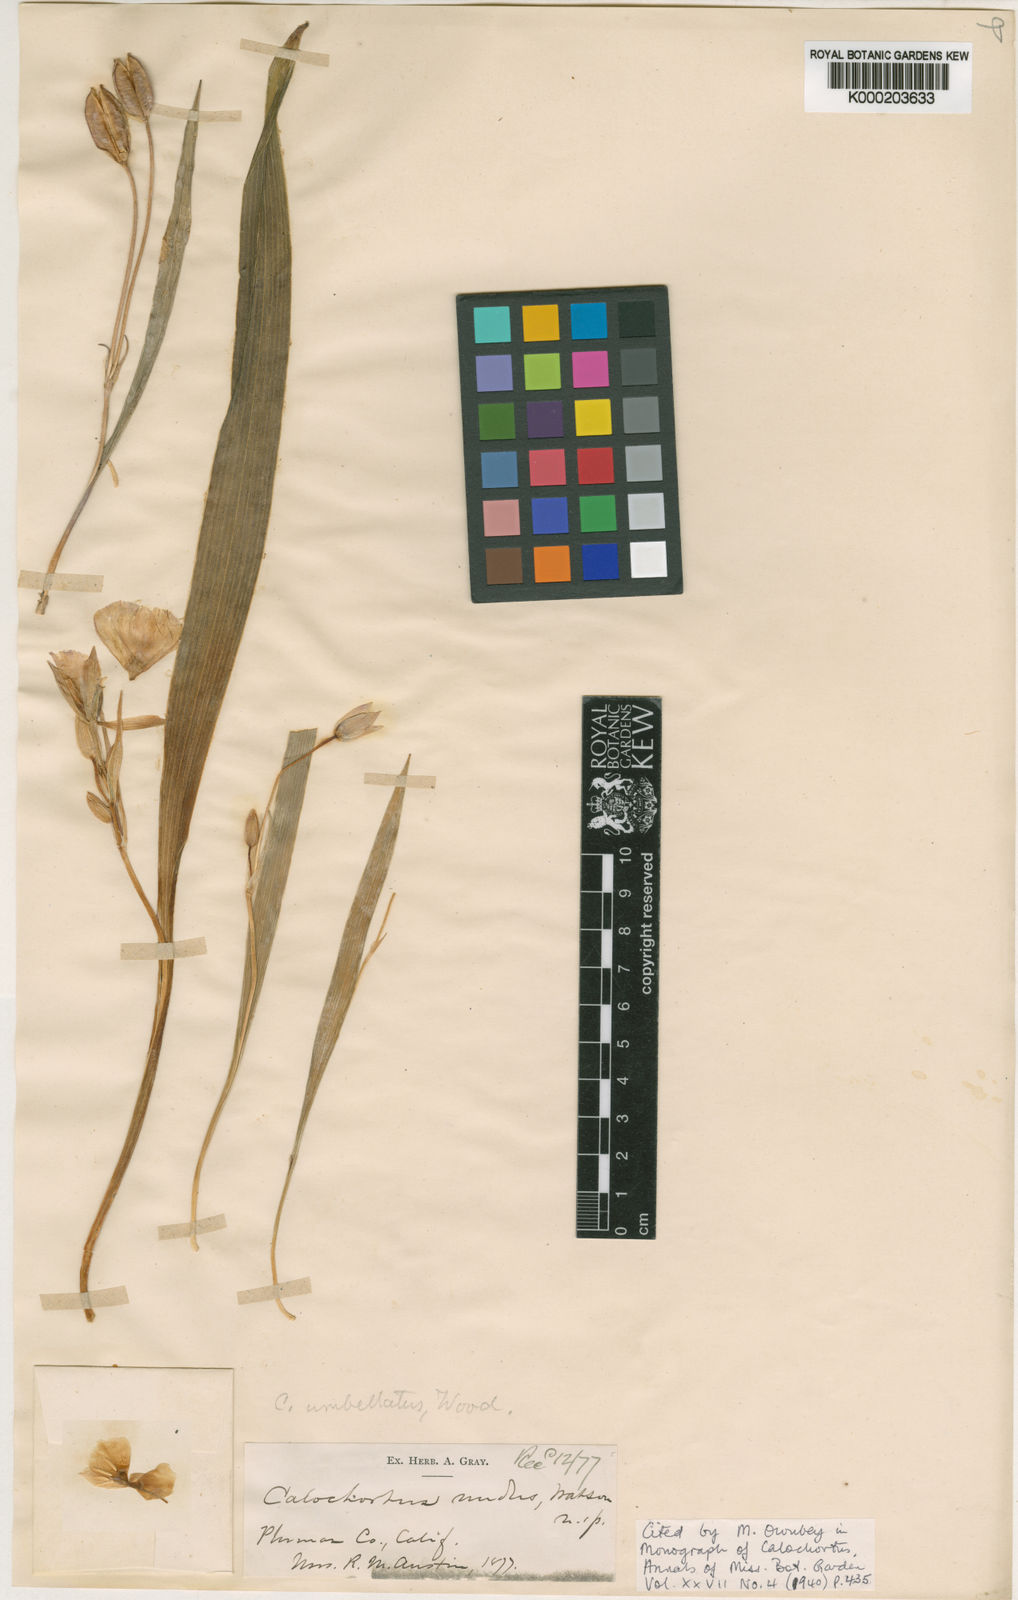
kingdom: Plantae
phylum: Tracheophyta
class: Liliopsida
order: Liliales
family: Liliaceae
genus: Calochortus
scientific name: Calochortus nudus
